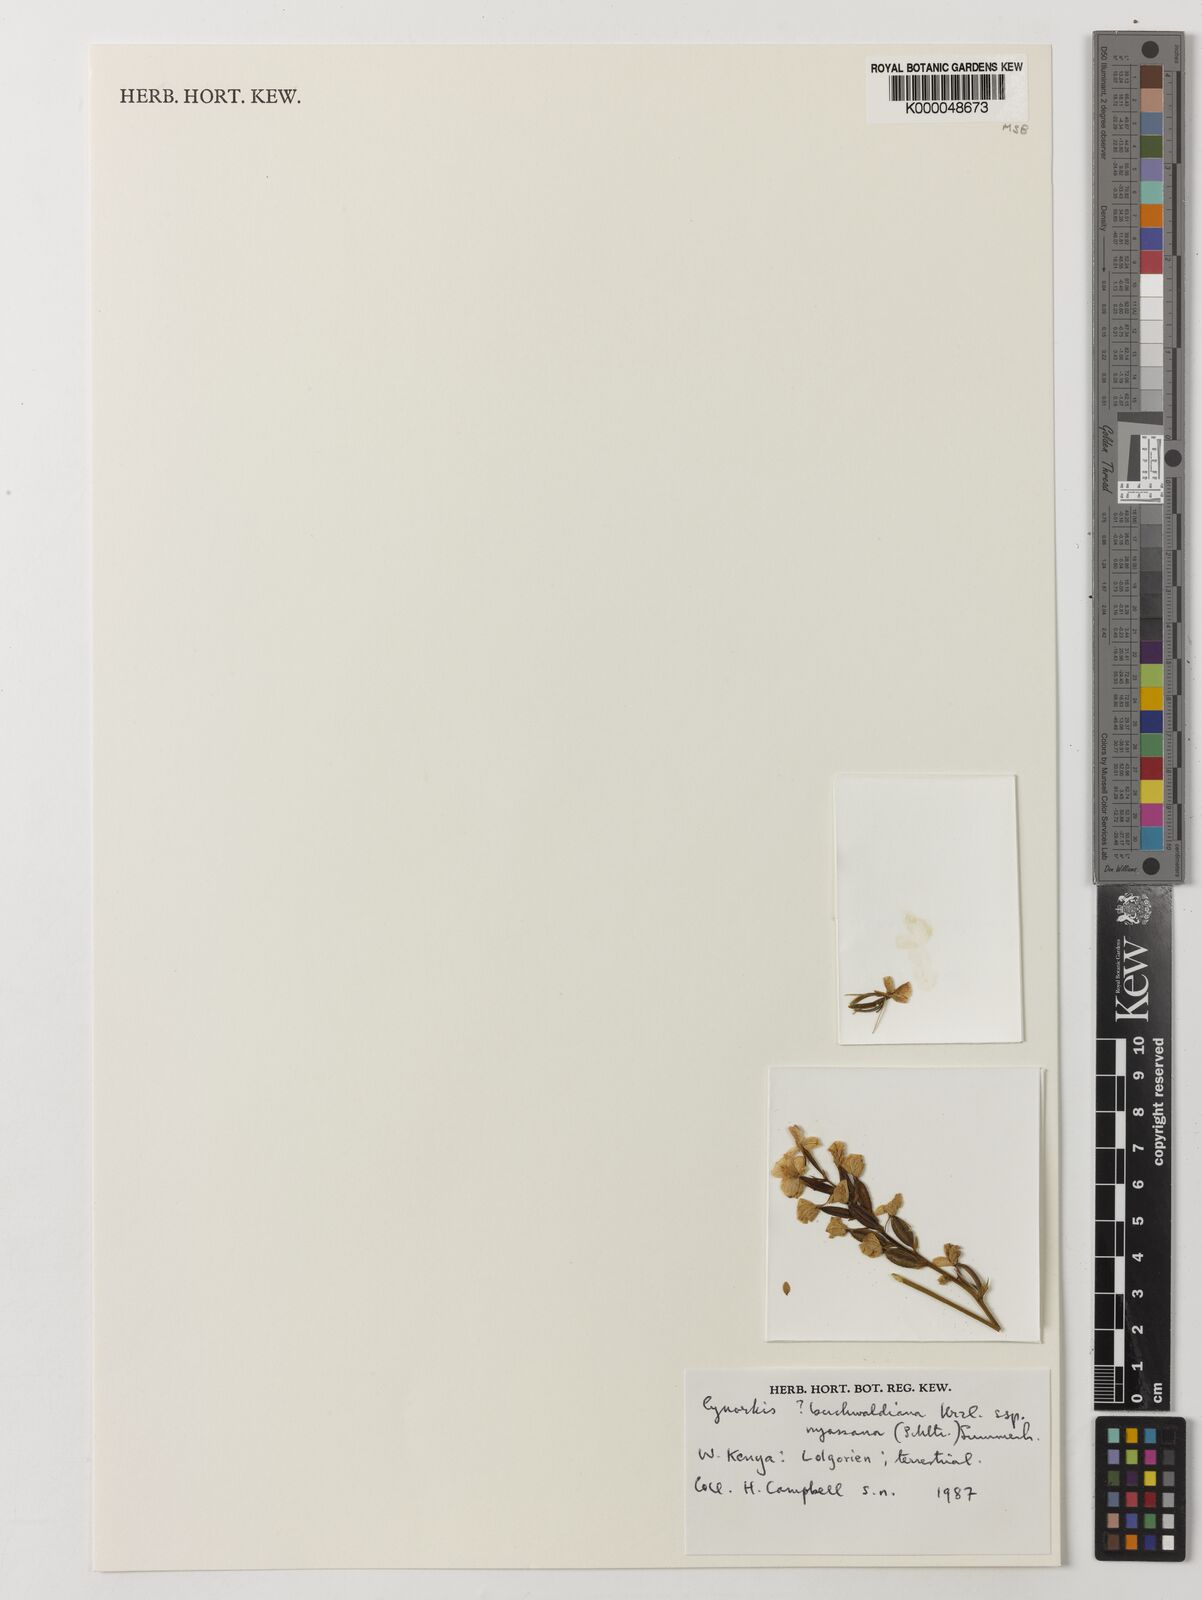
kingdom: Plantae
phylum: Tracheophyta
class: Liliopsida
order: Asparagales
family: Orchidaceae
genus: Cynorkis
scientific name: Cynorkis buchananii
